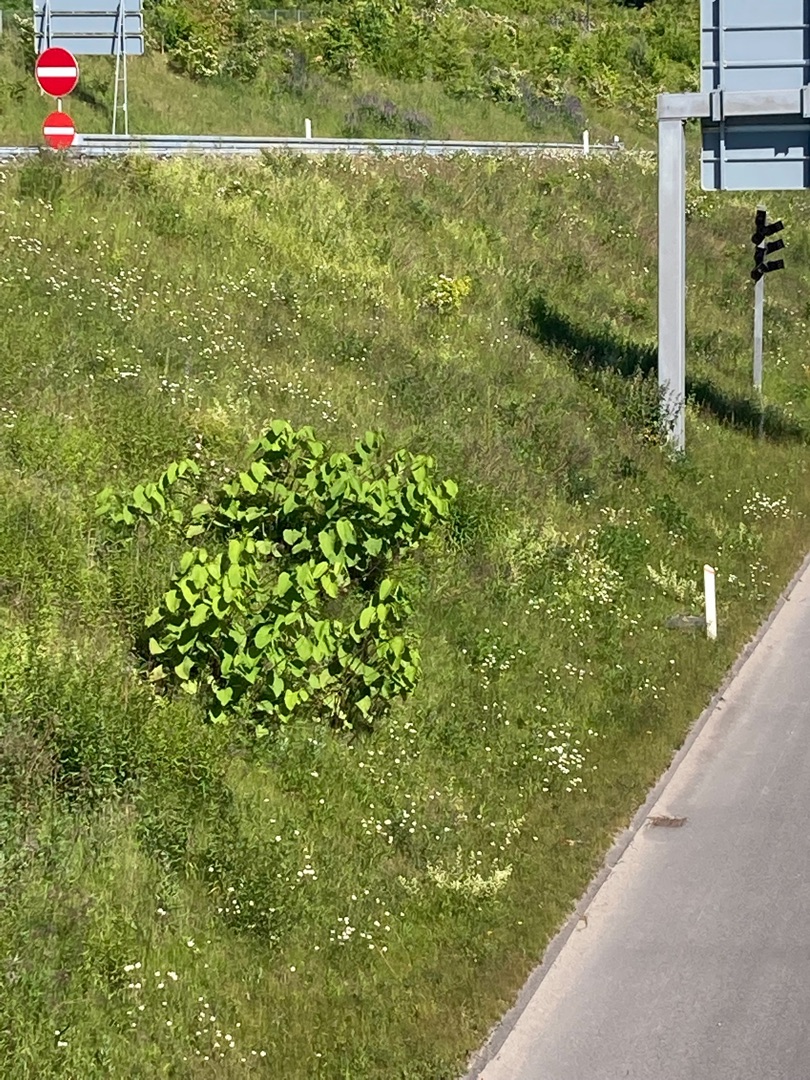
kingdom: Plantae
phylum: Tracheophyta
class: Magnoliopsida
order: Caryophyllales
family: Polygonaceae
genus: Reynoutria
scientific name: Reynoutria
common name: Pileurt (Reynoutria-slægten)
